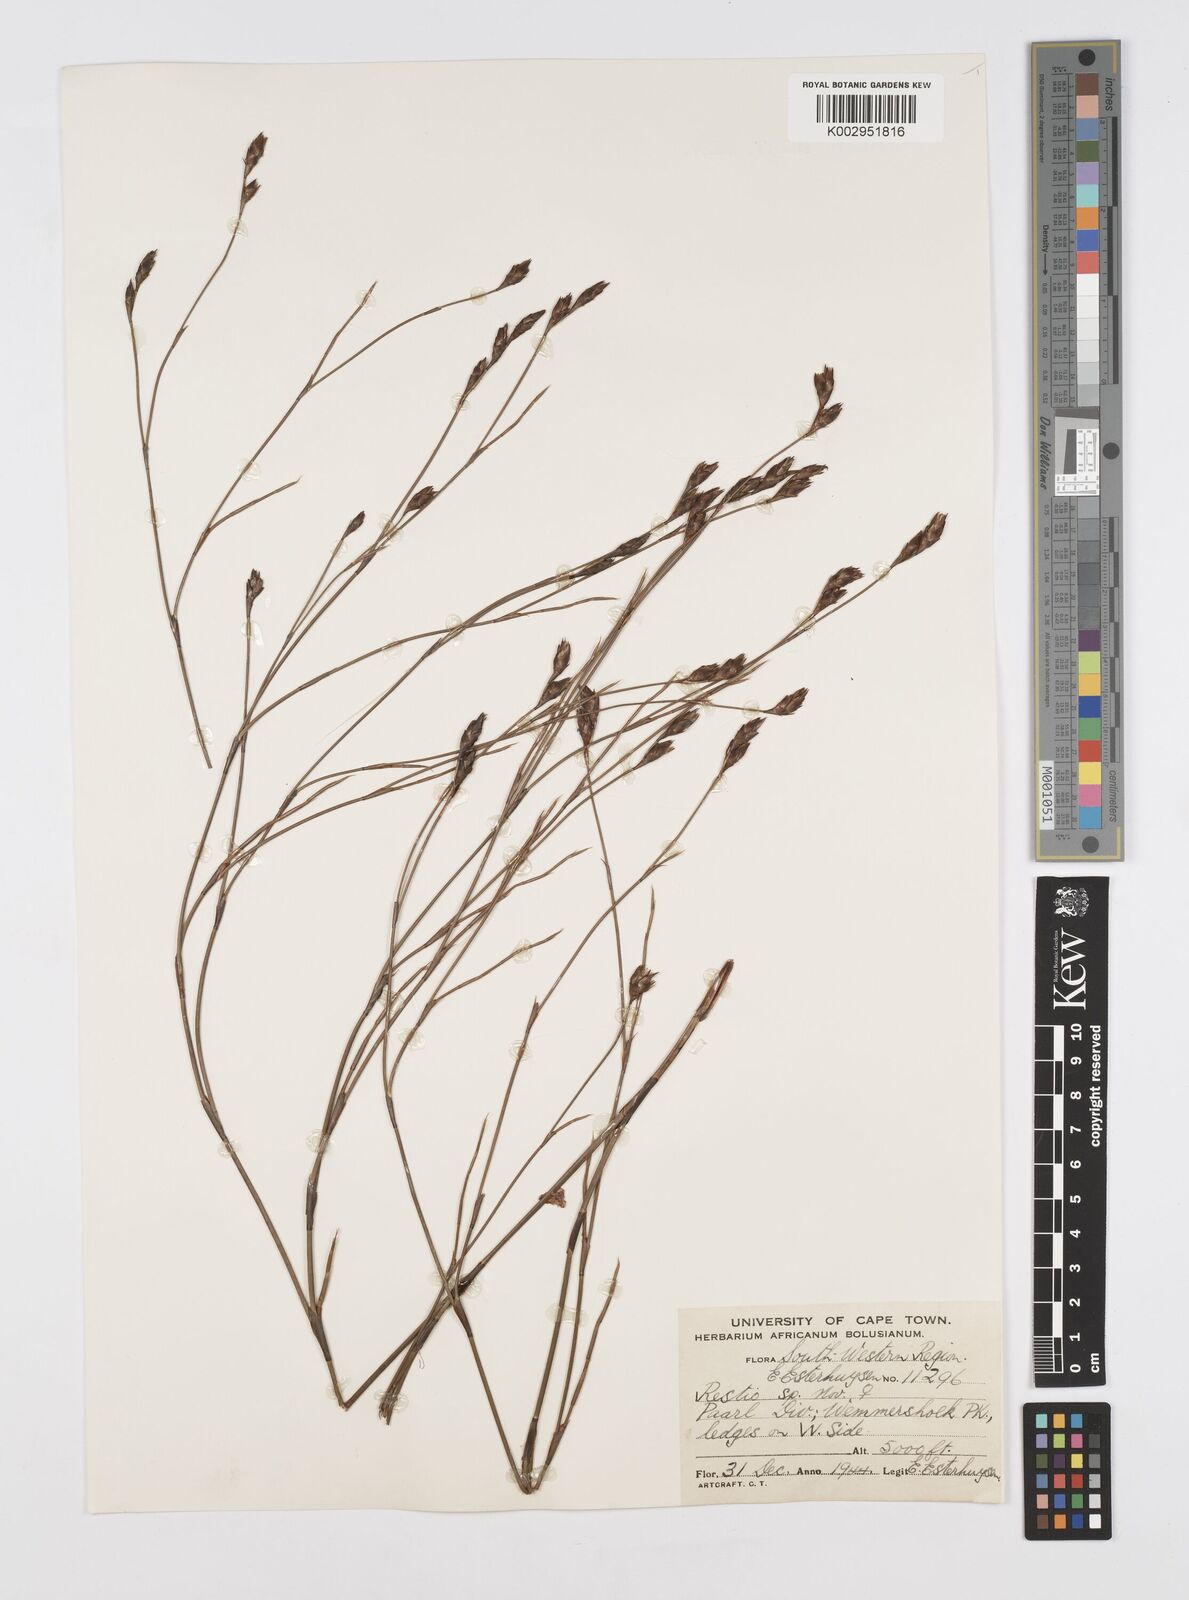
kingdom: Plantae
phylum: Tracheophyta
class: Liliopsida
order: Poales
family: Restionaceae
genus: Restio
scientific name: Restio strictus
